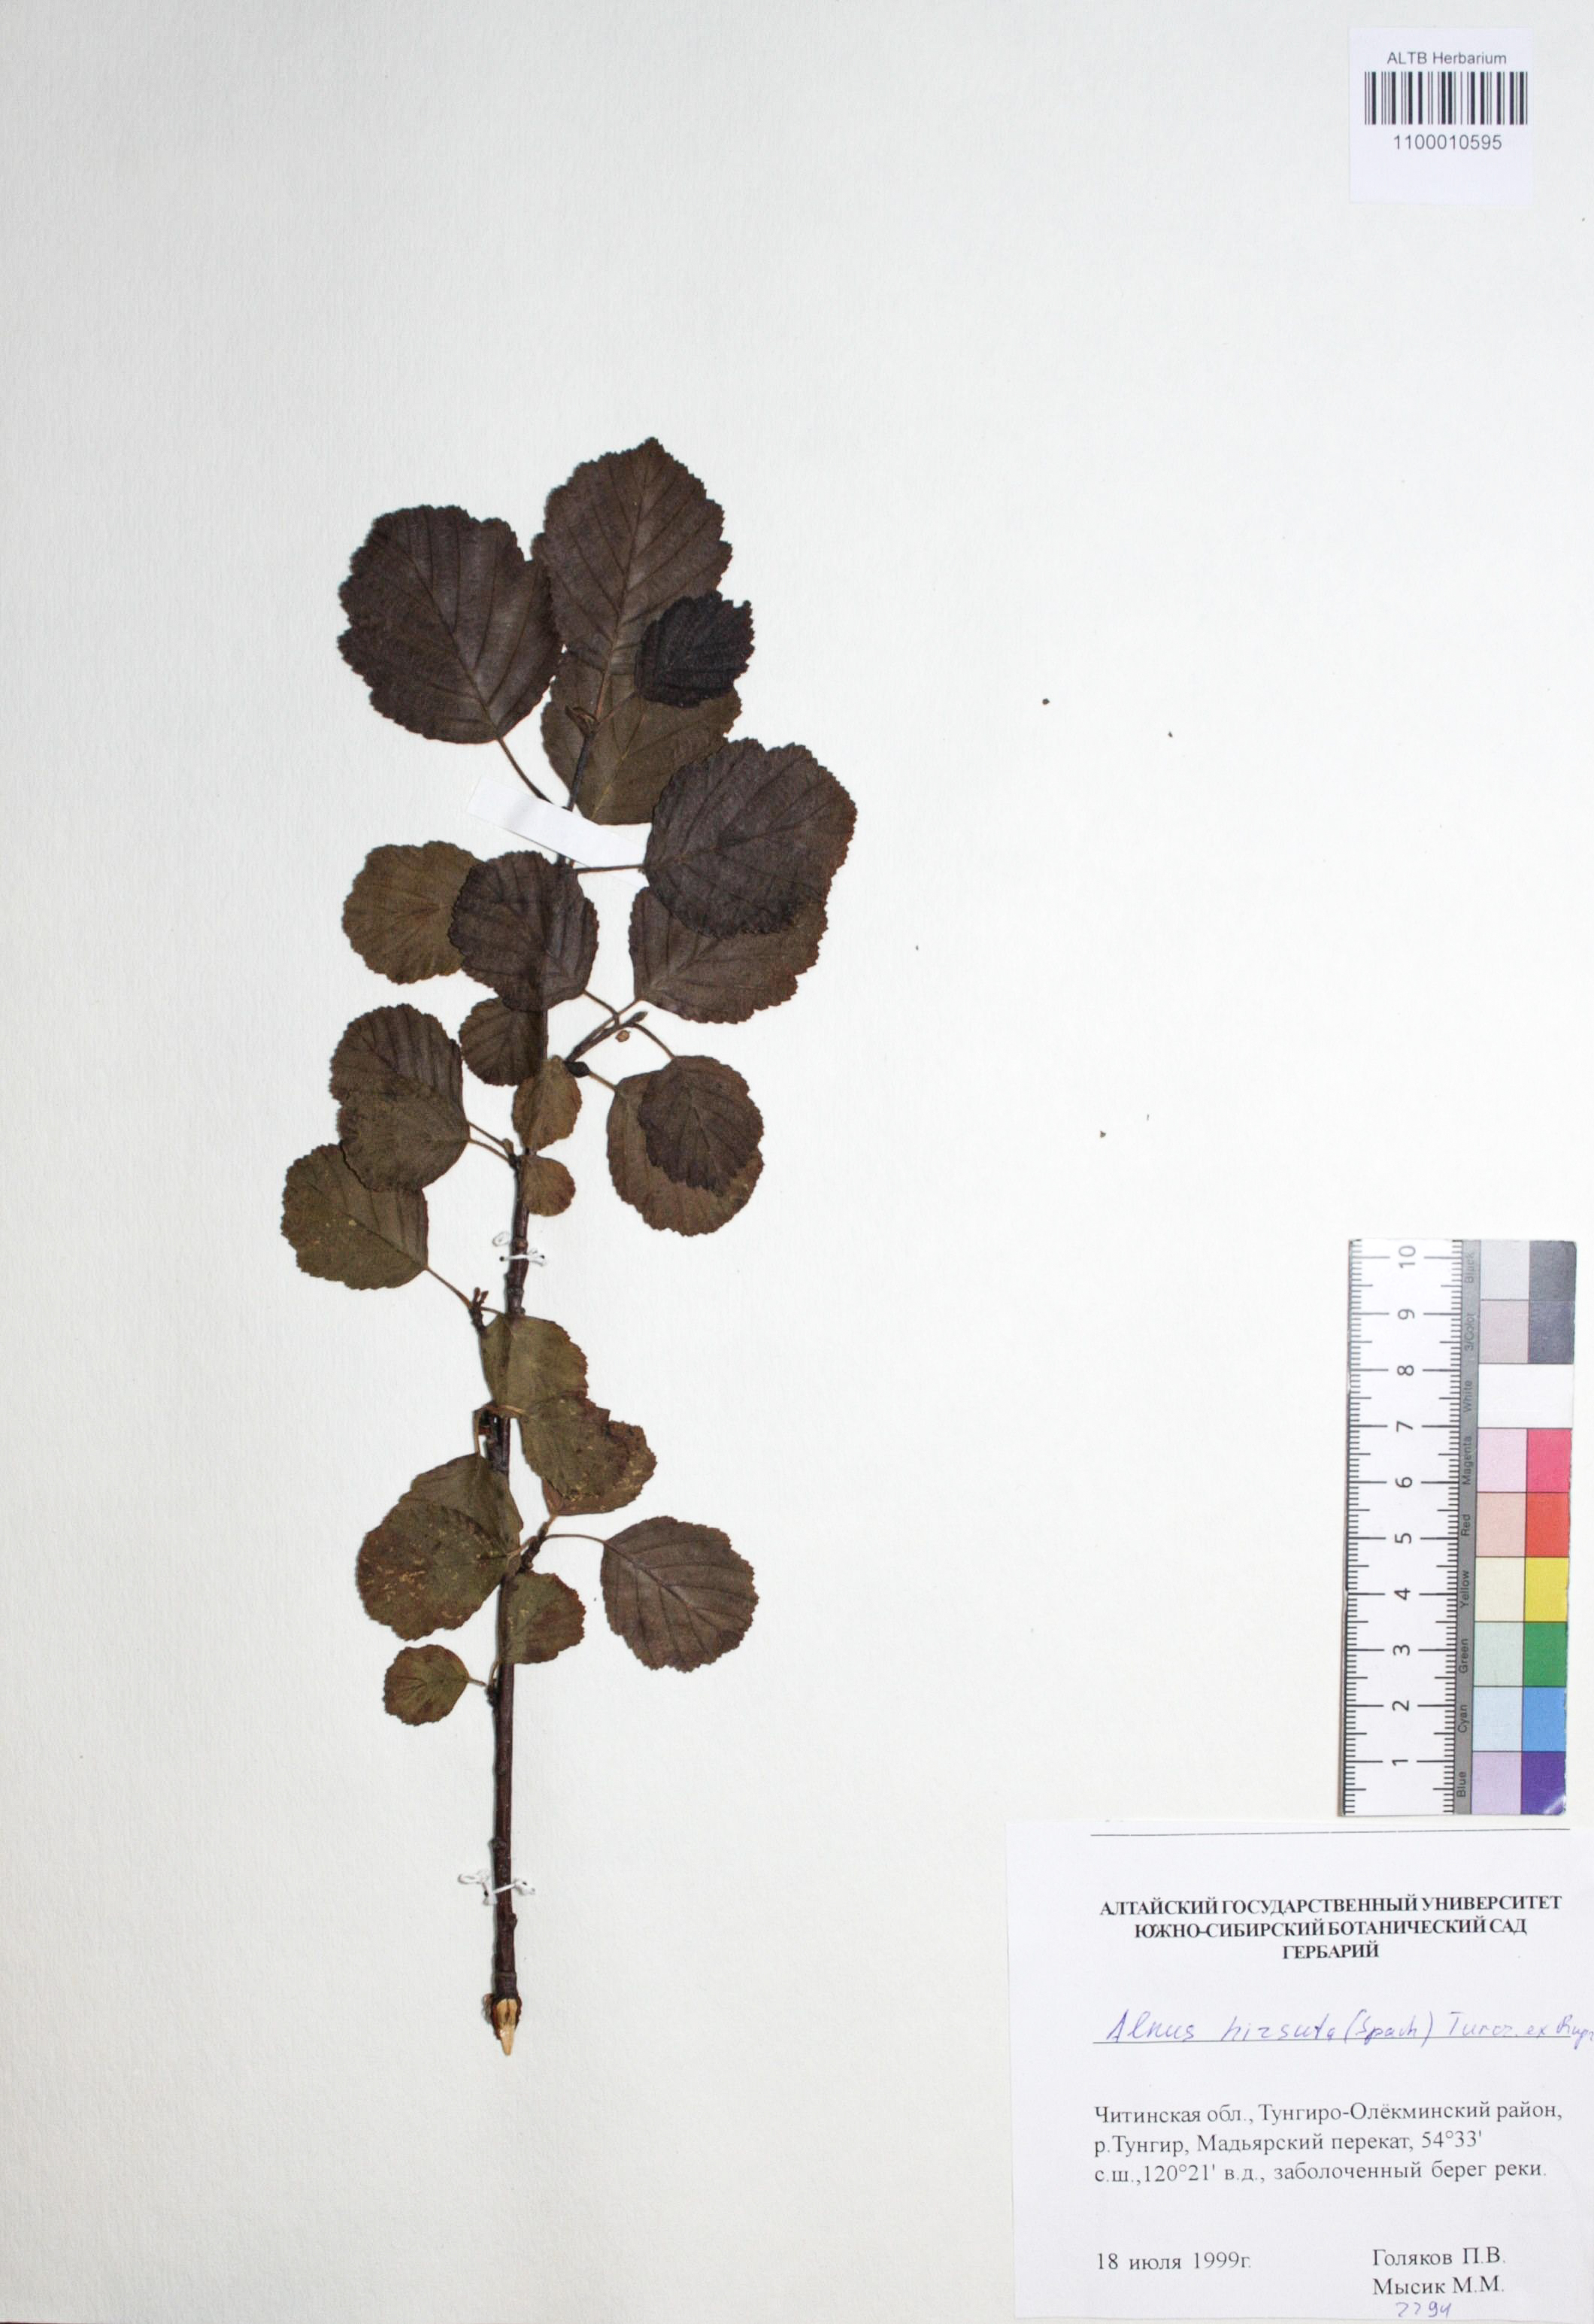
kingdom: Plantae
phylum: Tracheophyta
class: Magnoliopsida
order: Fagales
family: Betulaceae
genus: Alnus
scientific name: Alnus hirsuta
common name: Manchurian alder
